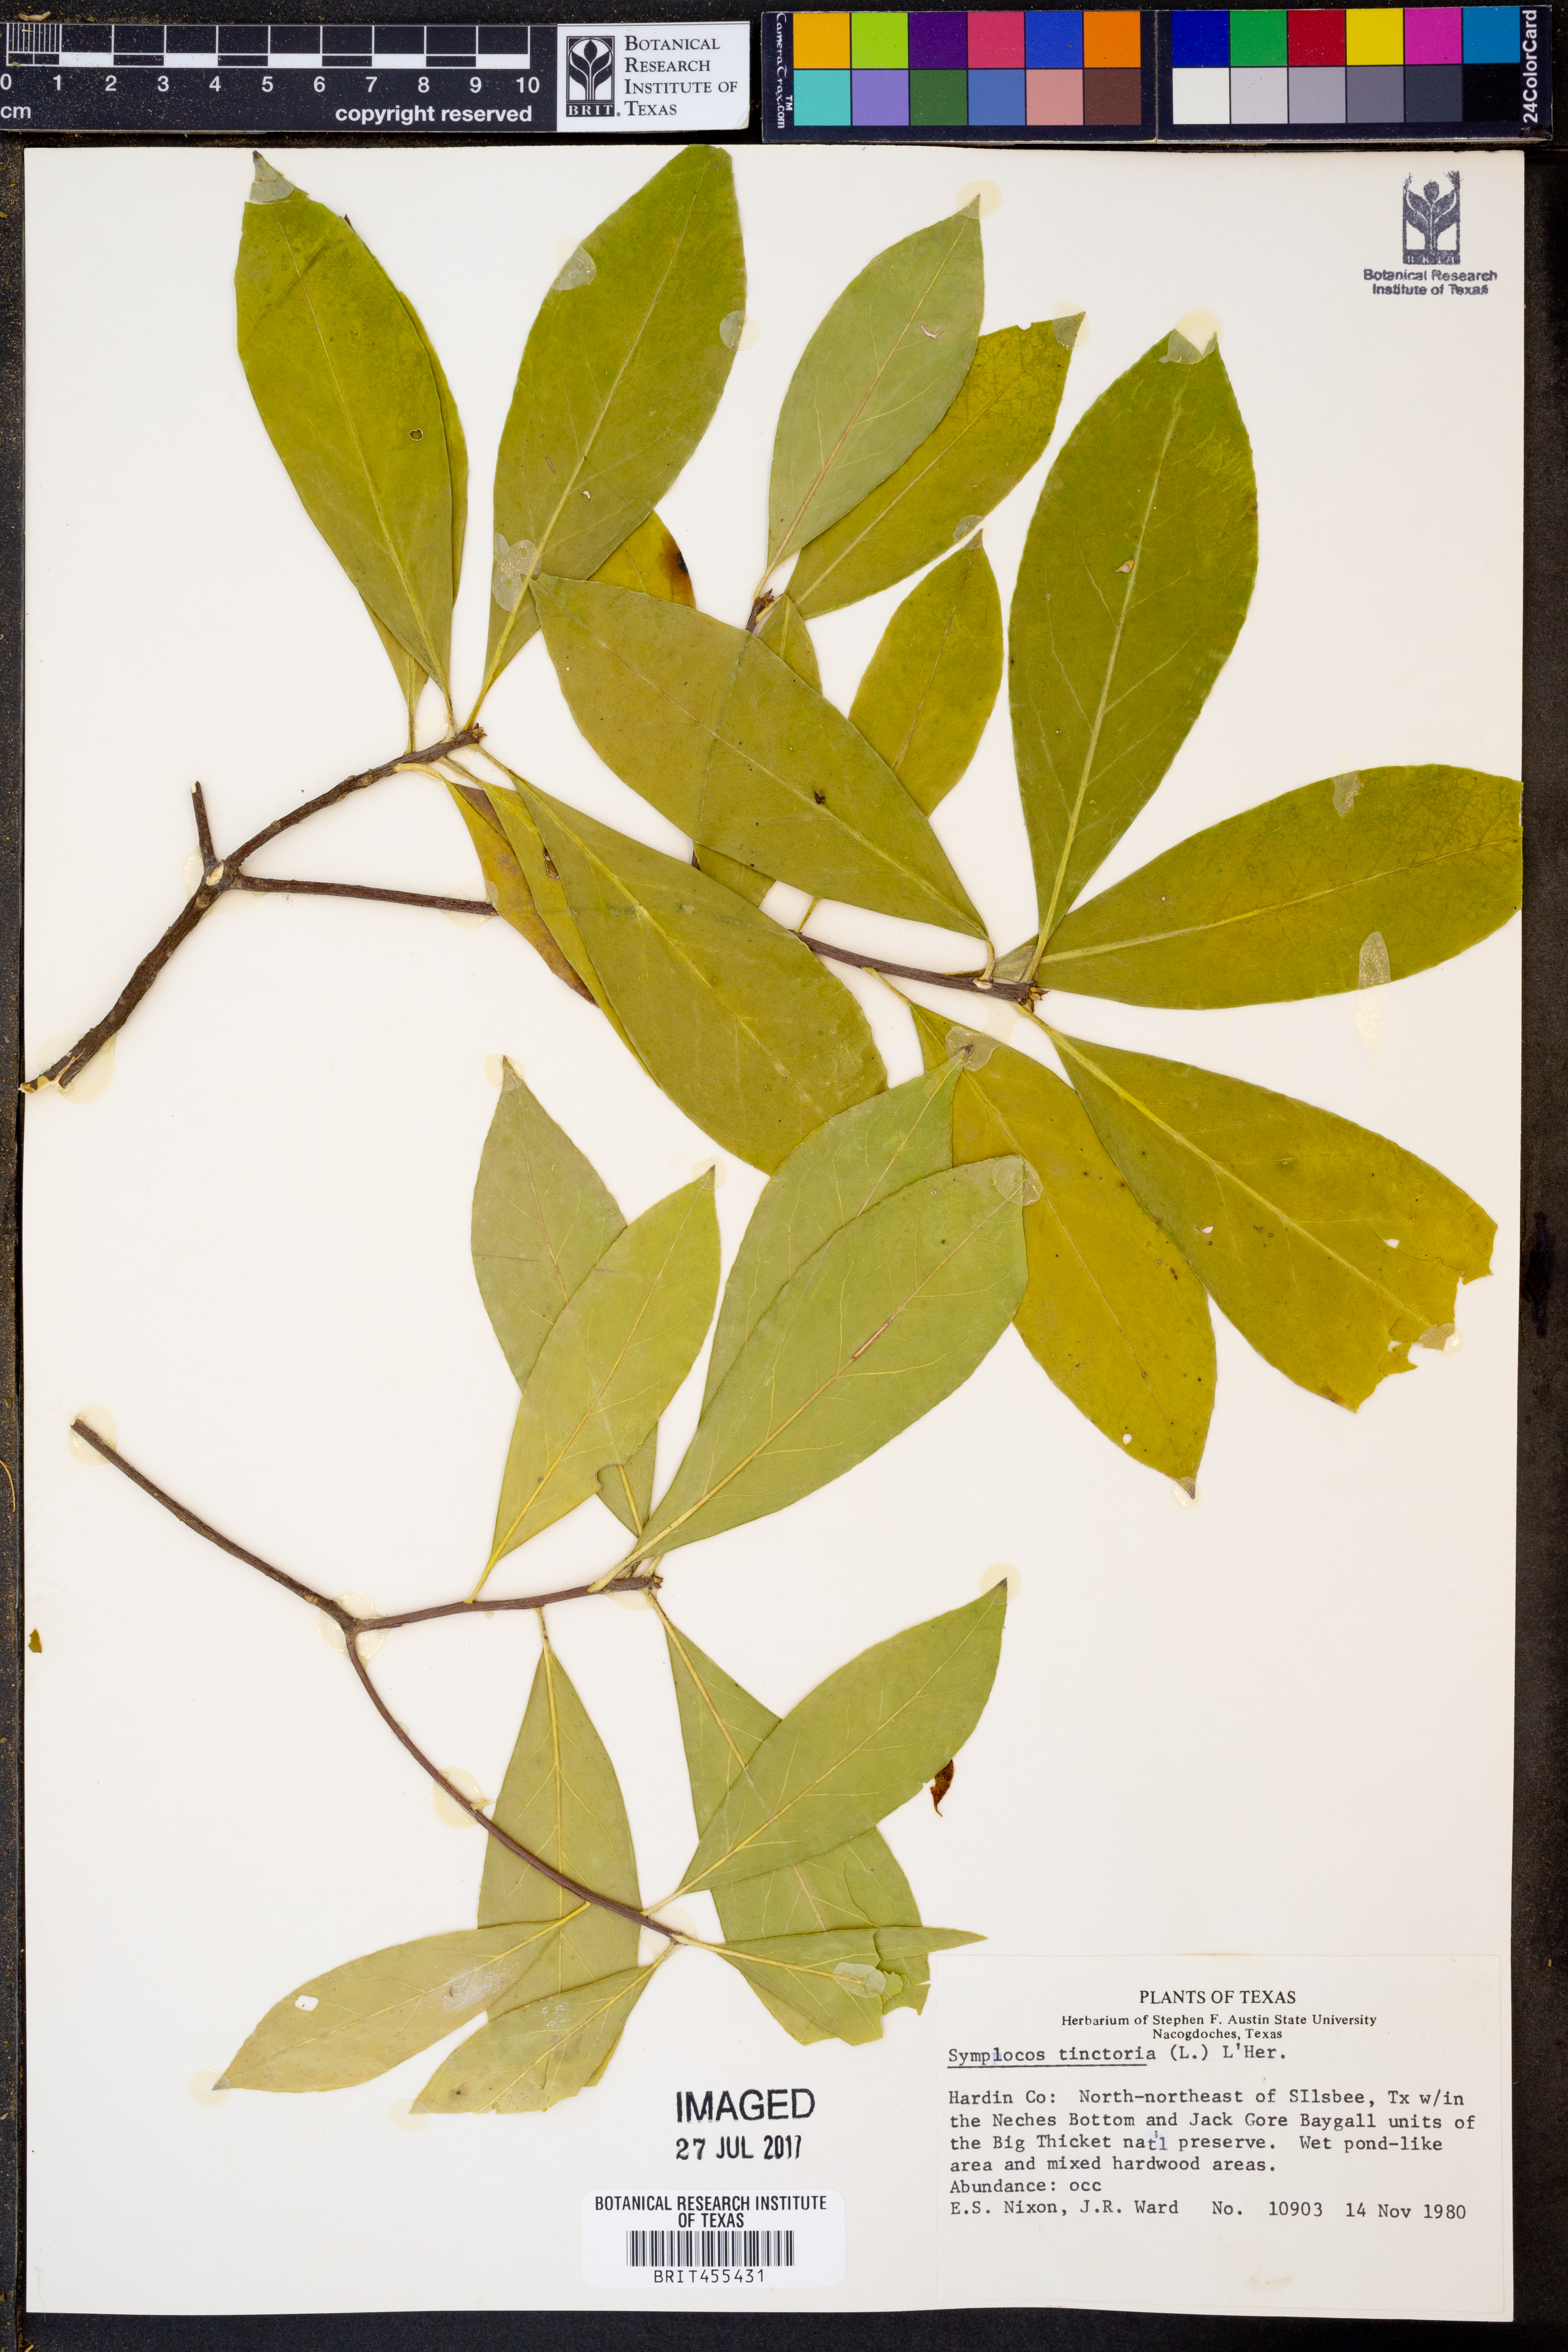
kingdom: Plantae
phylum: Tracheophyta
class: Magnoliopsida
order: Ericales
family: Symplocaceae
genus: Symplocos
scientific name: Symplocos tinctoria
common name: Horse-sugar
